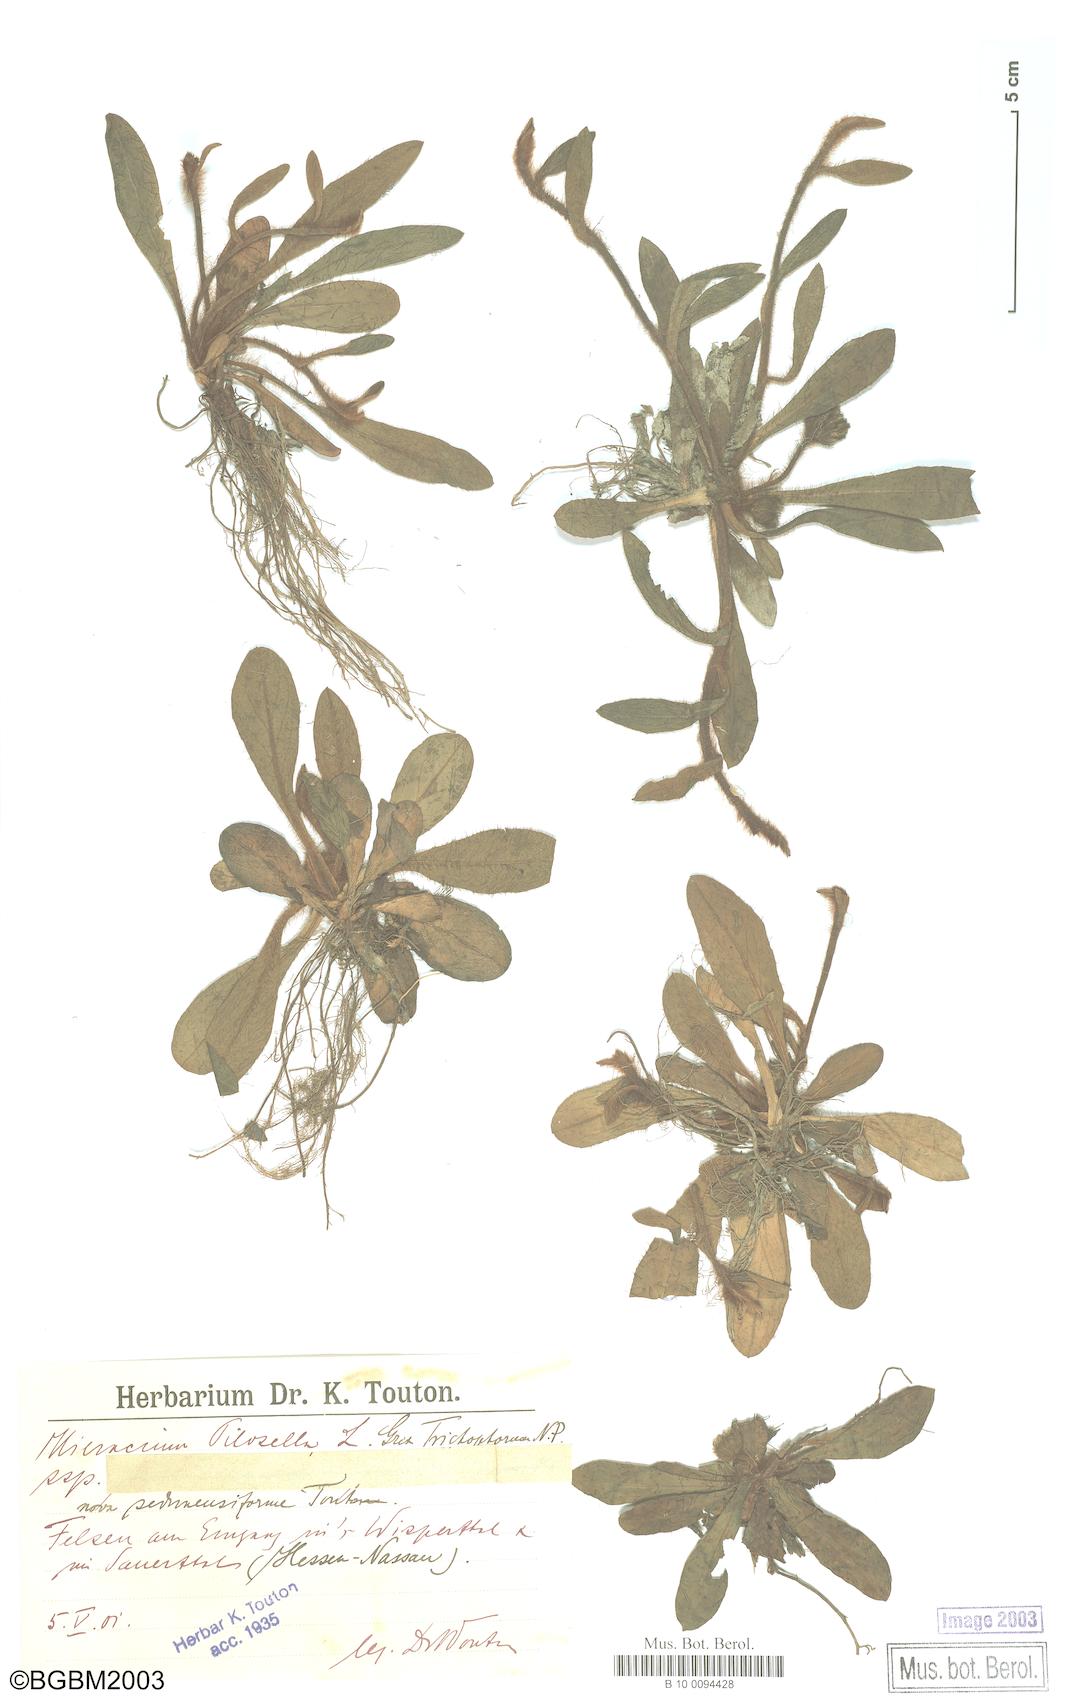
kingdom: Plantae
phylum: Tracheophyta
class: Magnoliopsida
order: Asterales
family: Asteraceae
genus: Pilosella
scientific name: Pilosella officinarum
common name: Mouse-ear hawkweed
